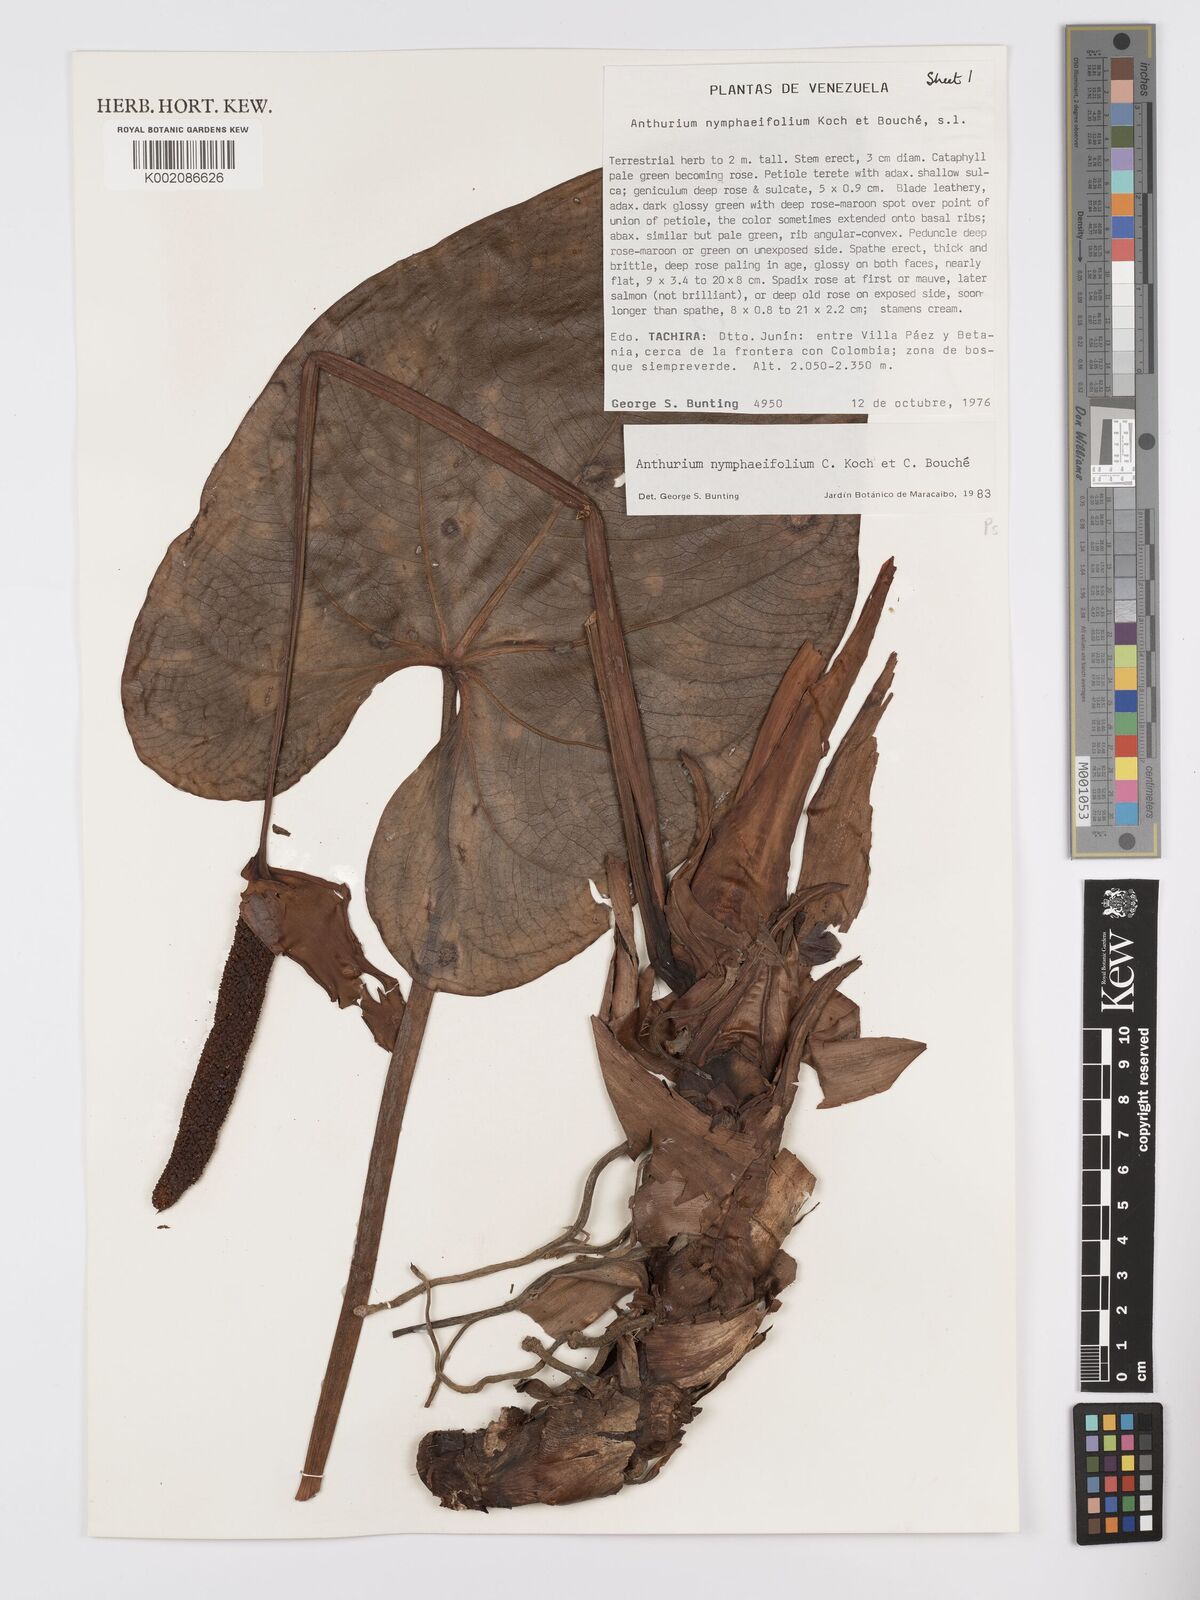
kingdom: Plantae
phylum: Tracheophyta
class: Liliopsida
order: Alismatales
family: Araceae
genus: Anthurium
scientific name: Anthurium nymphaeifolium
